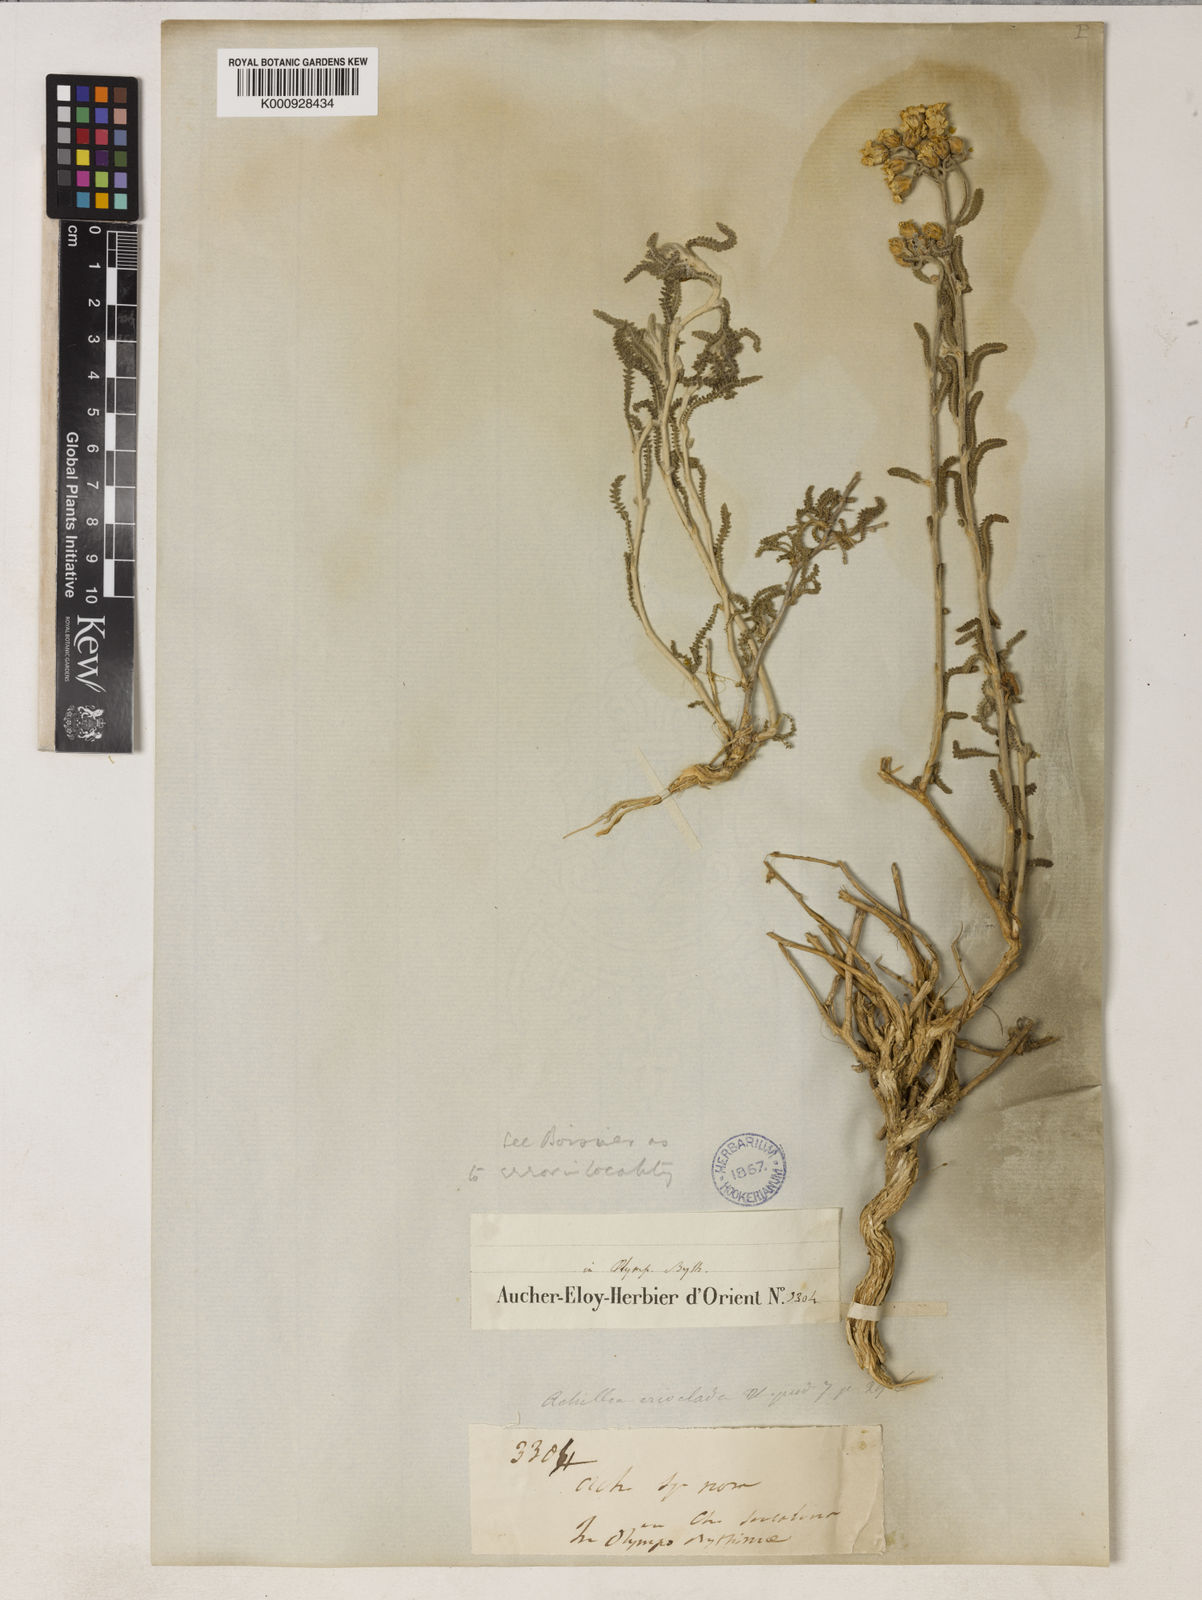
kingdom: Plantae
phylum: Tracheophyta
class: Magnoliopsida
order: Asterales
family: Asteraceae
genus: Achillea
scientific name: Achillea cretica
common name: Chamomile-leaved lavender-cotton
